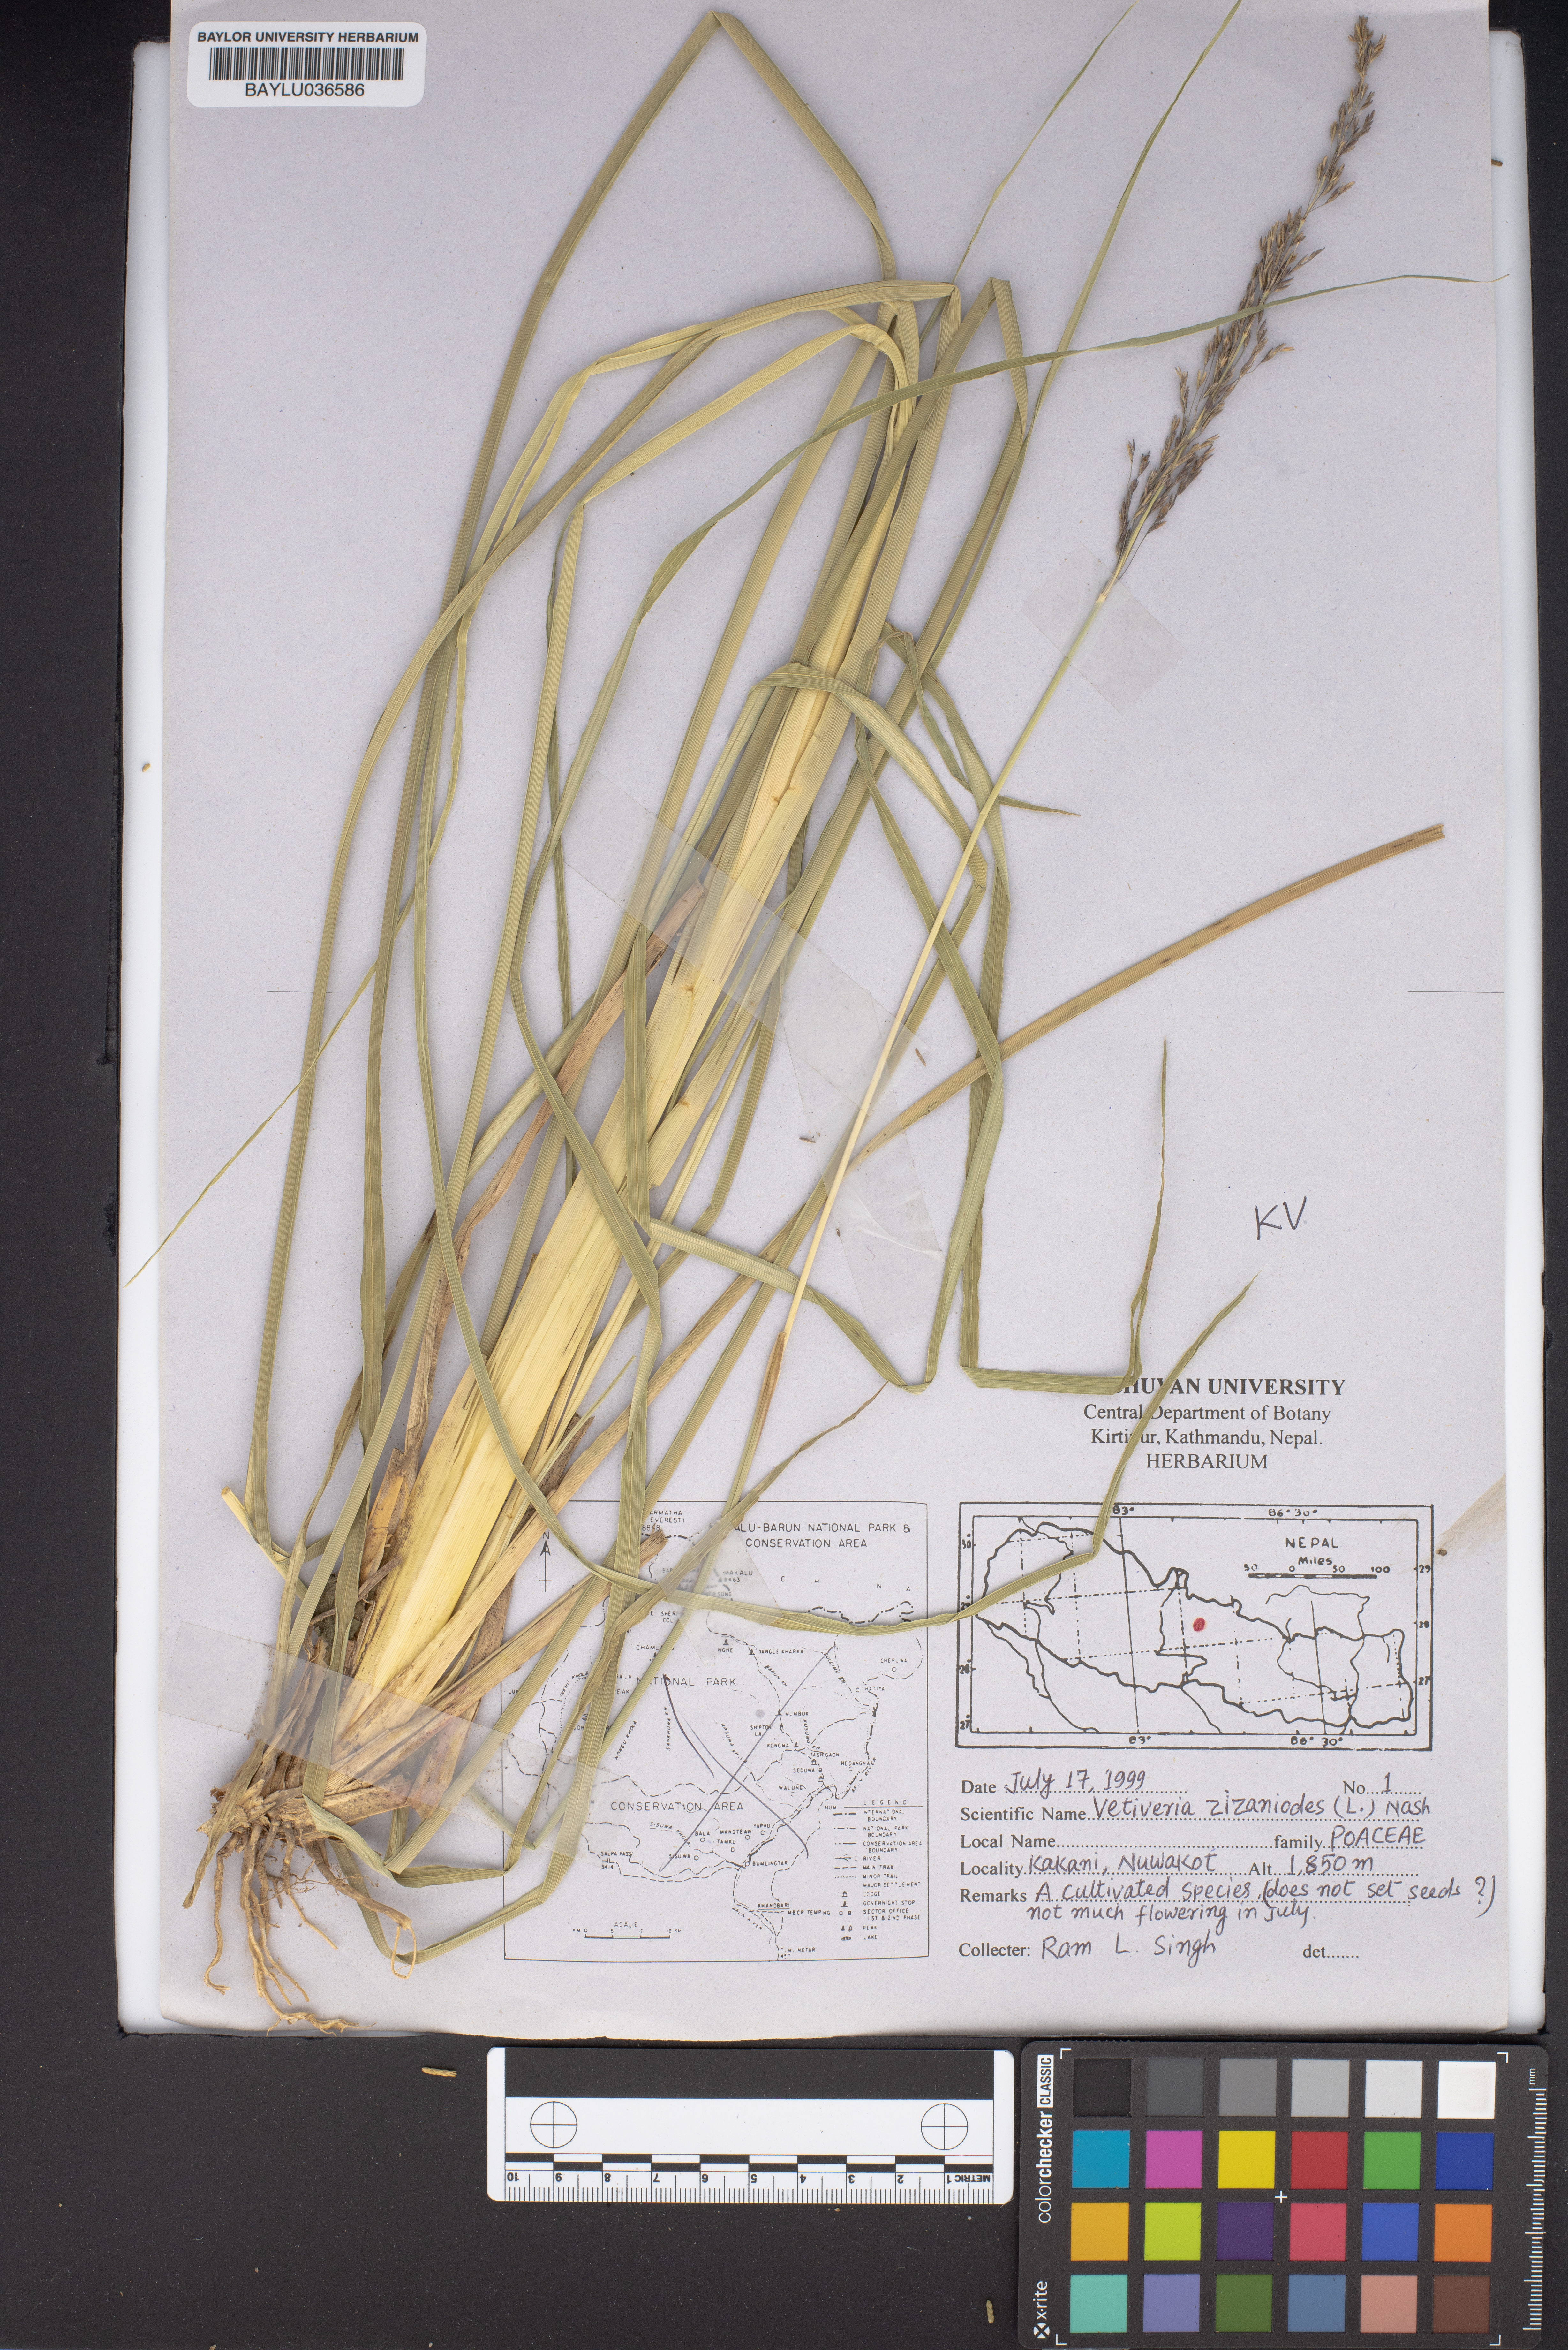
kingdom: Plantae
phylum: Tracheophyta
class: Liliopsida
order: Poales
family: Poaceae
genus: Vetiveria
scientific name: Vetiveria zizanioides
